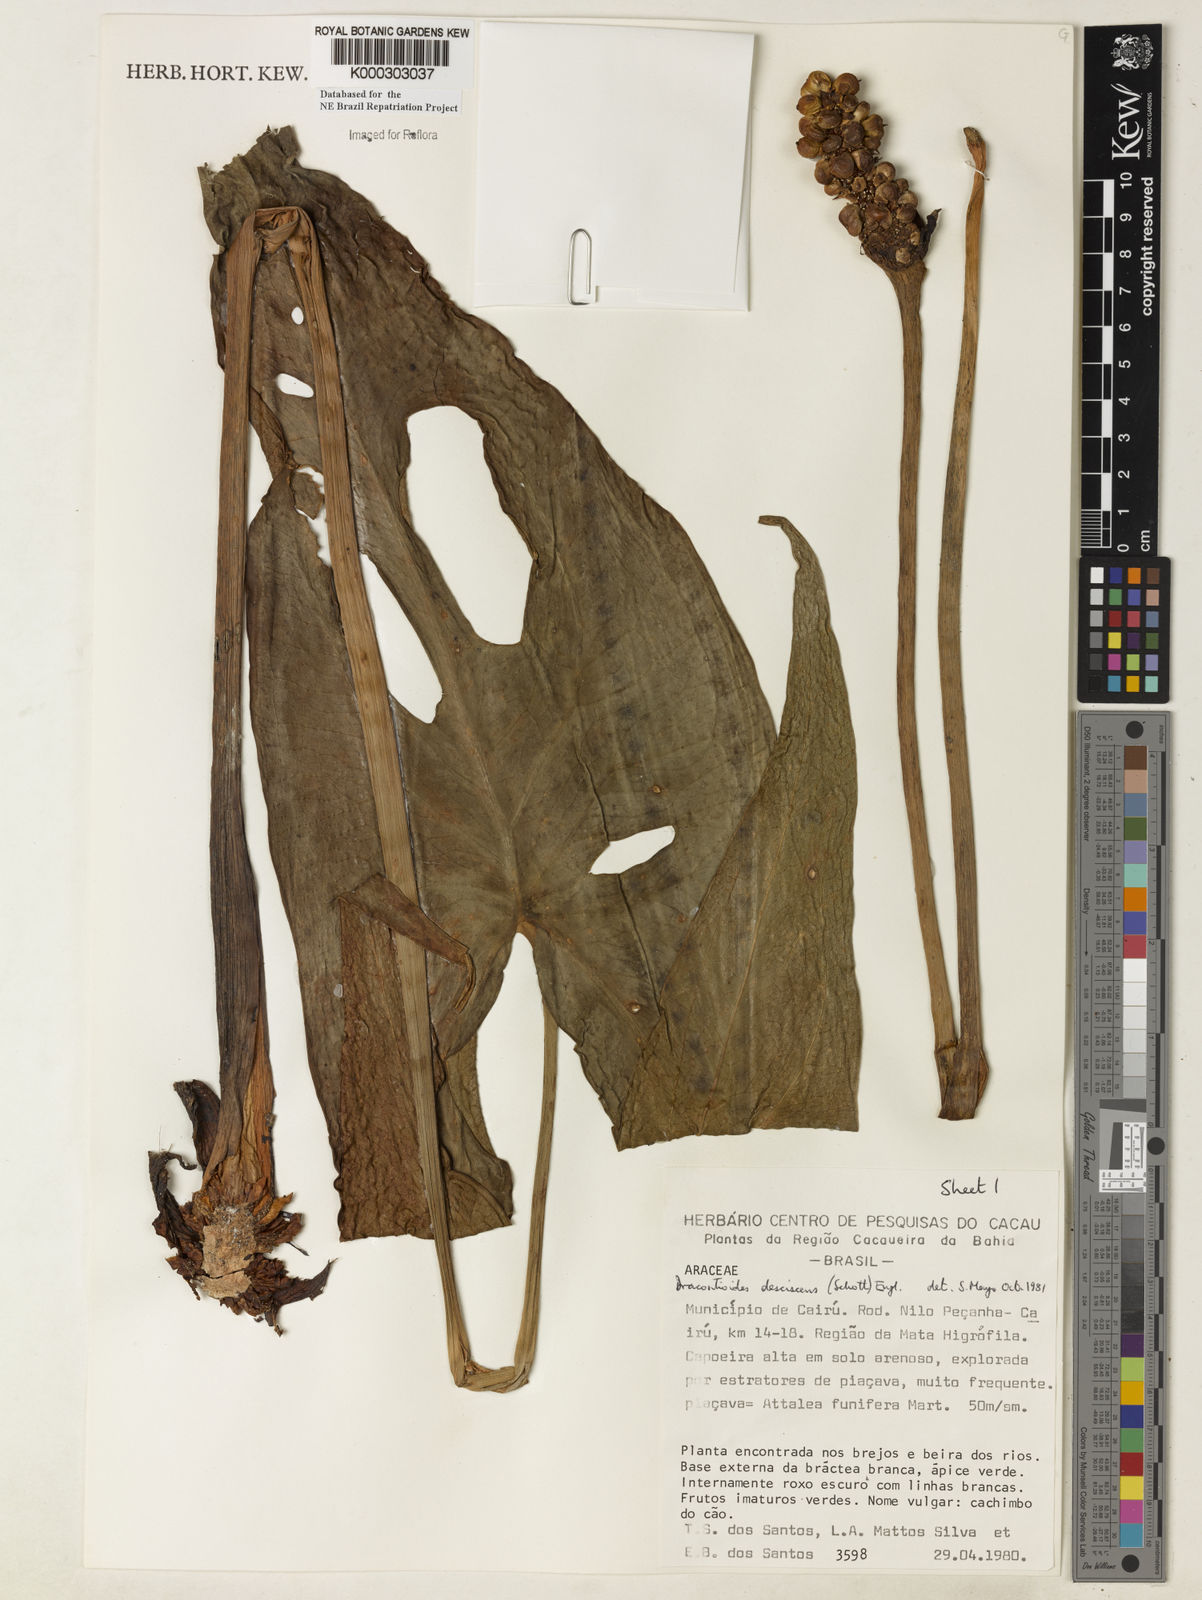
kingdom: Plantae
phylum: Tracheophyta
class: Liliopsida
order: Alismatales
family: Araceae
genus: Dracontioides
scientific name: Dracontioides desciscens
